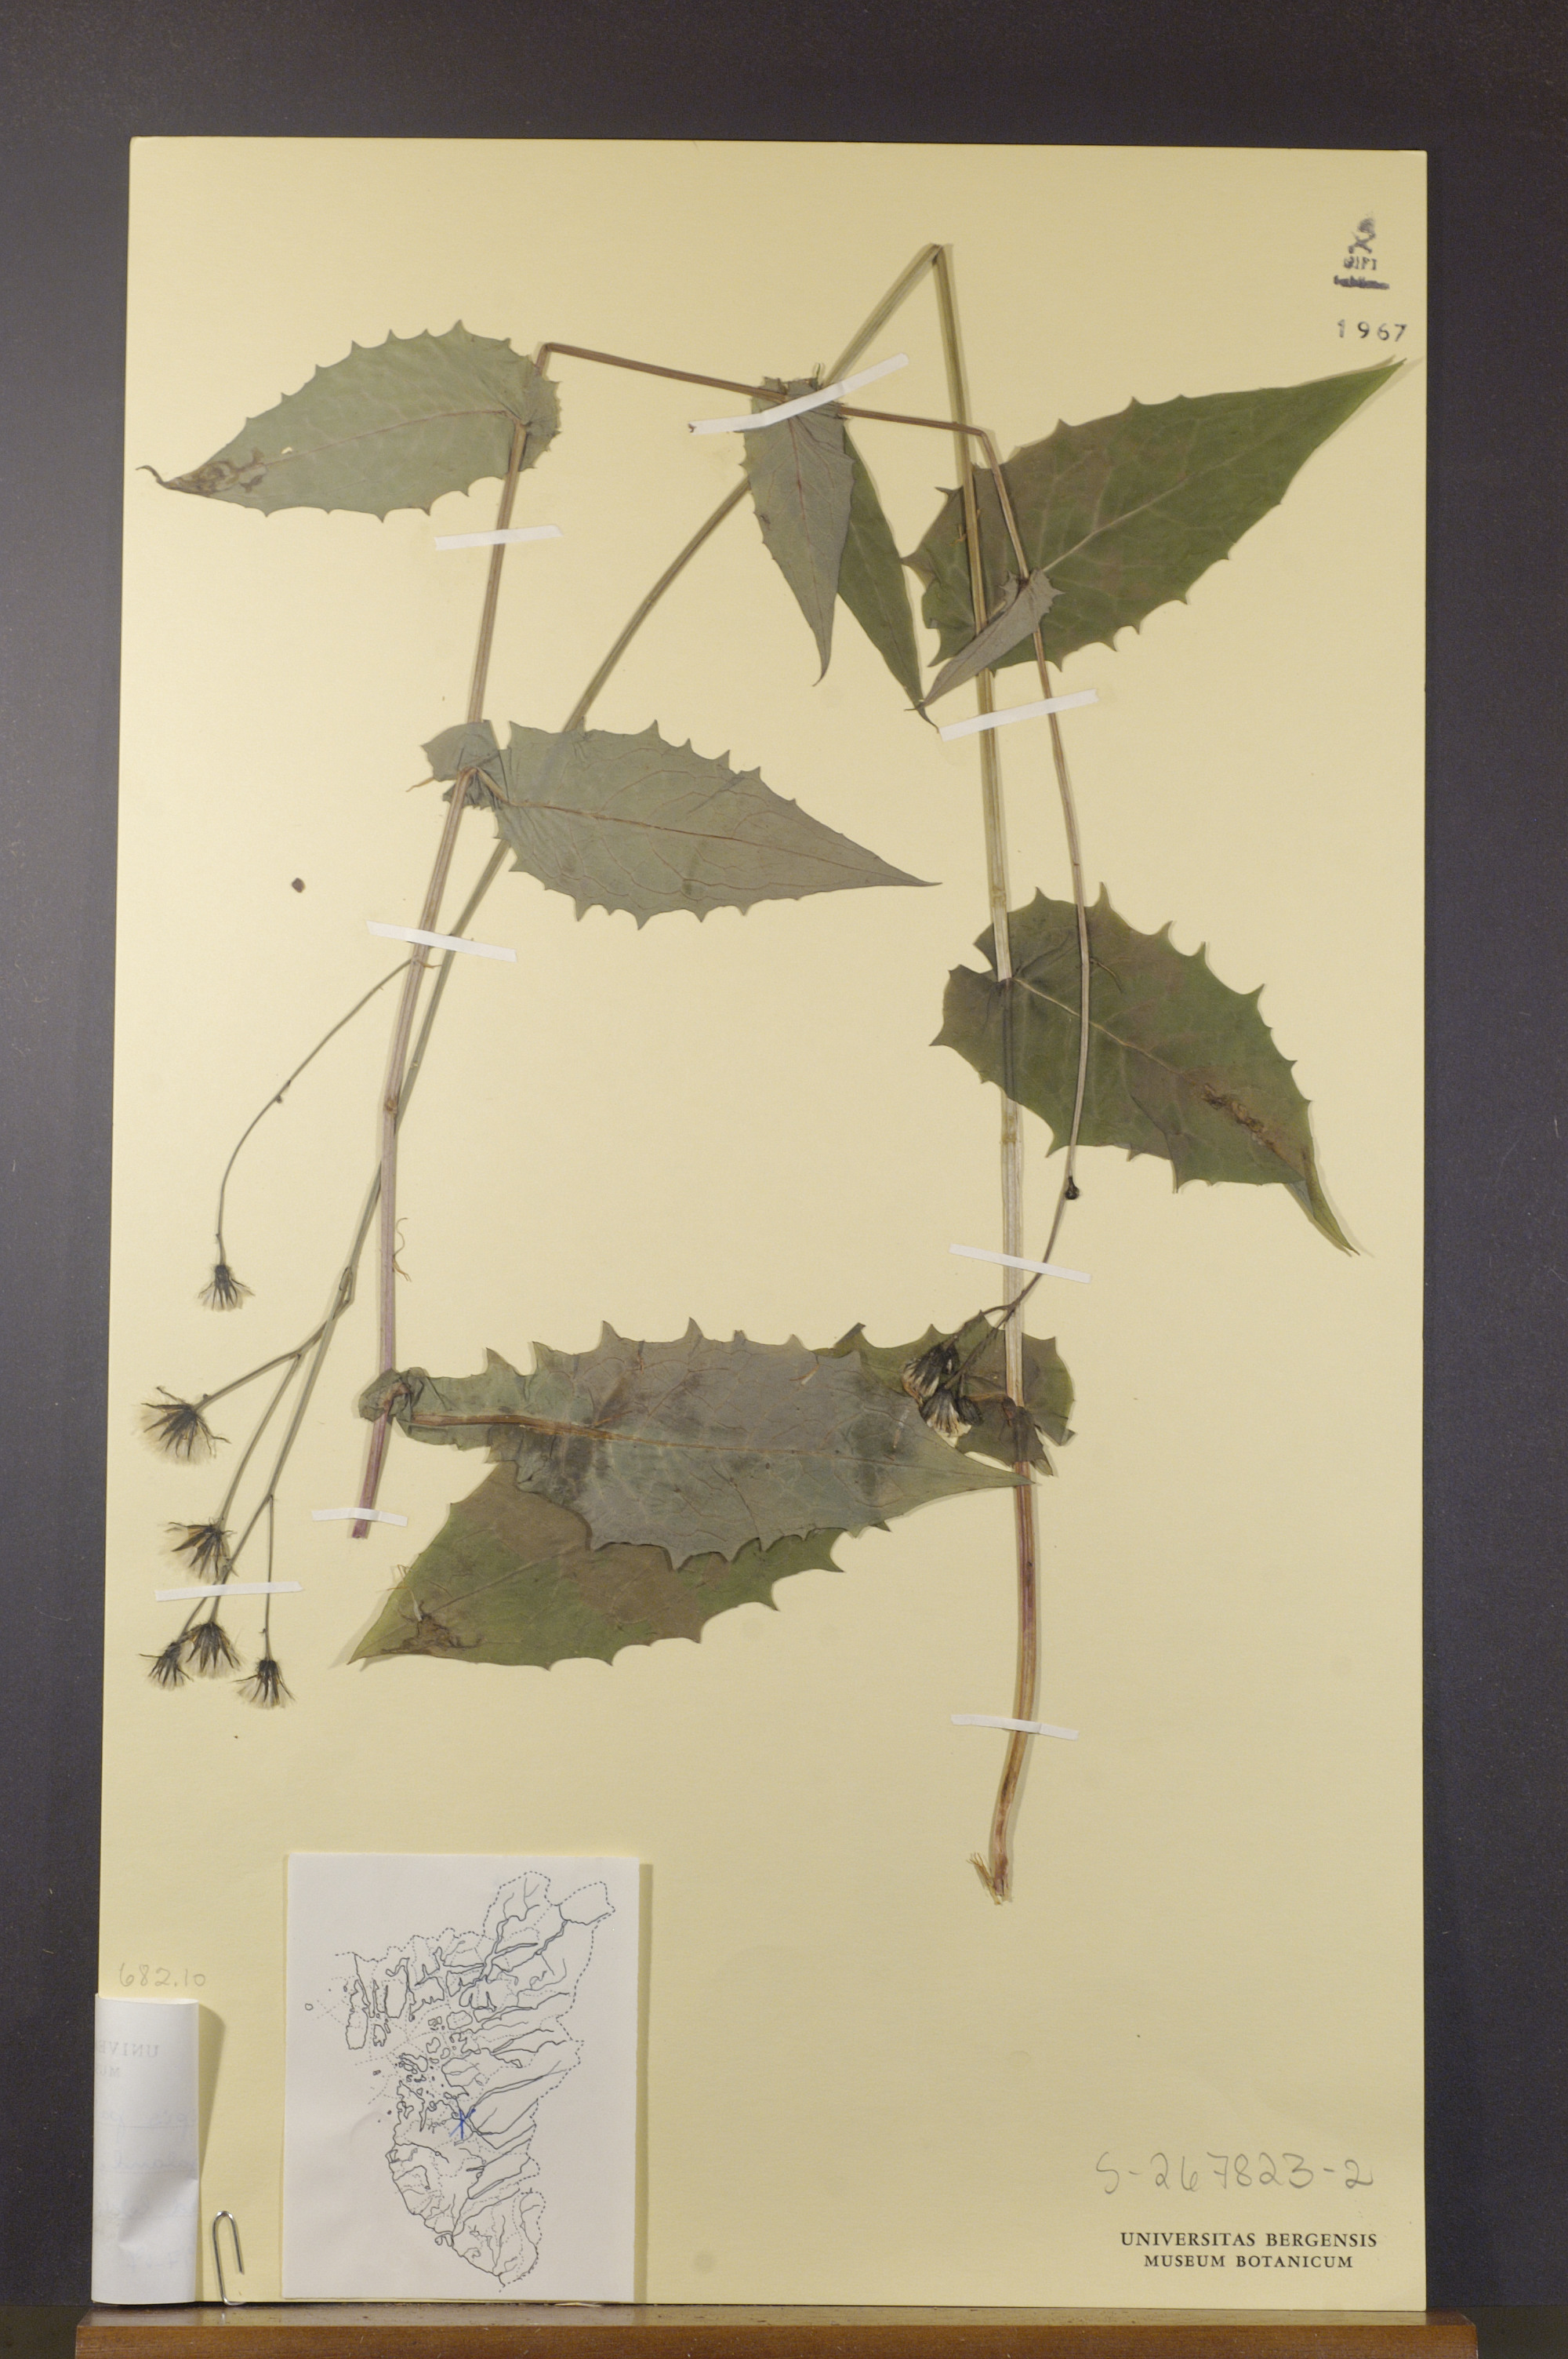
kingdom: Plantae
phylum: Tracheophyta
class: Magnoliopsida
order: Asterales
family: Asteraceae
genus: Crepis
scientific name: Crepis paludosa
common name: Marsh hawk's-beard
